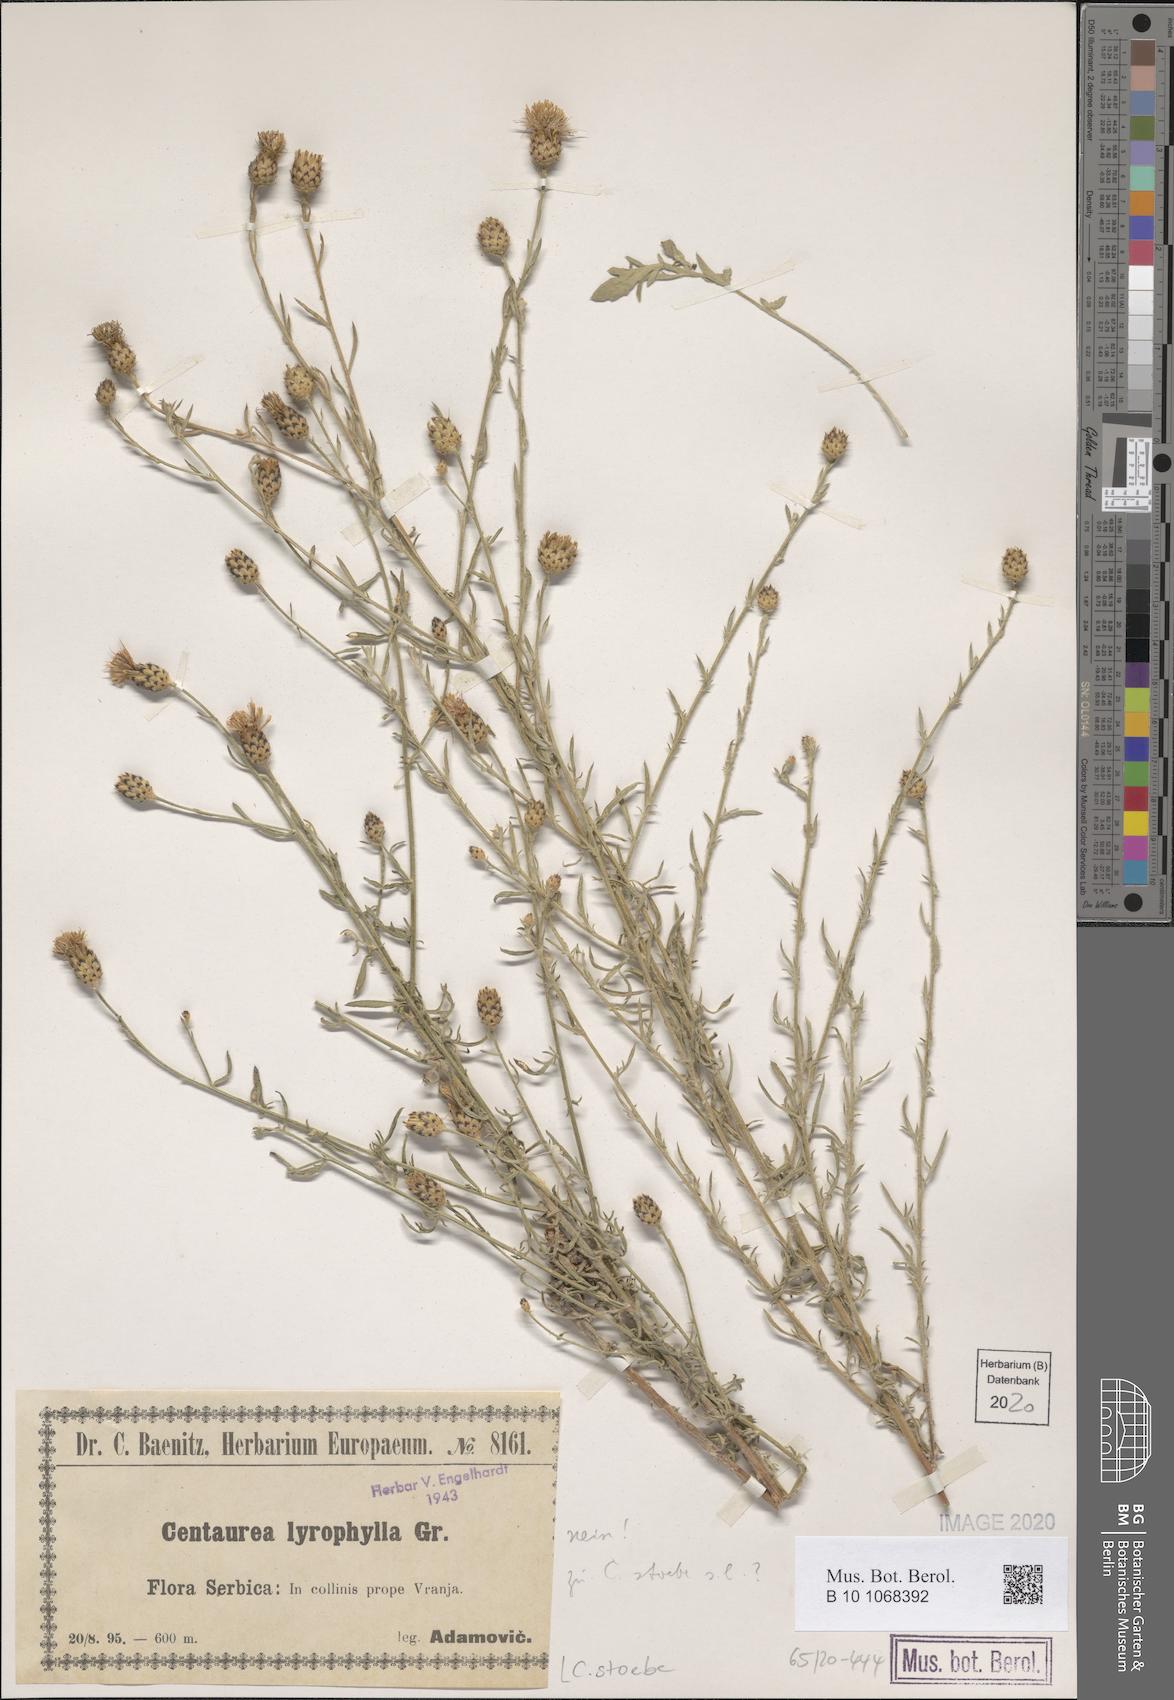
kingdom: Plantae
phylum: Tracheophyta
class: Magnoliopsida
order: Asterales
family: Asteraceae
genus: Centaurea
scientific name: Centaurea stoebe
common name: Spotted knapweed
